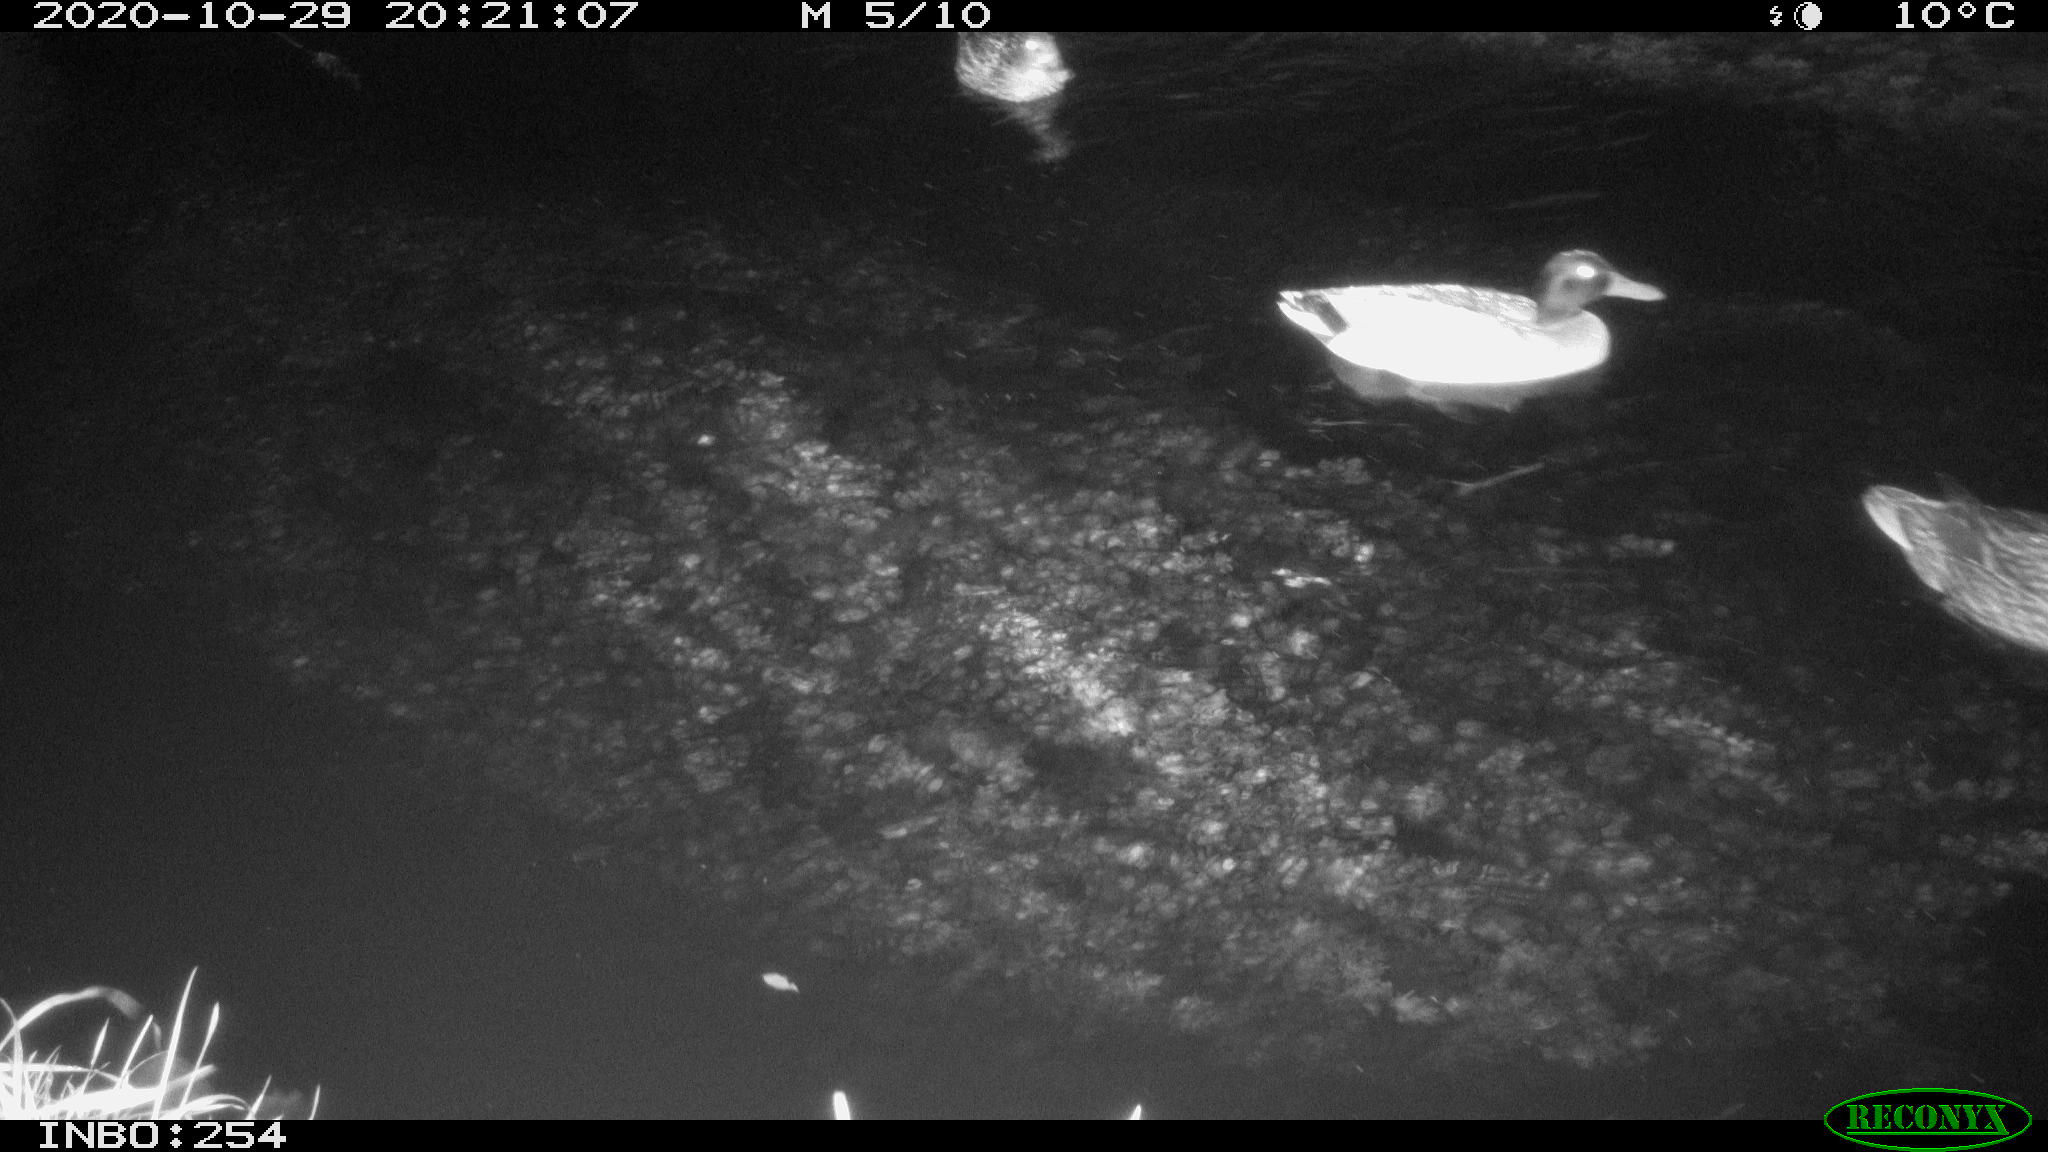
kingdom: Animalia
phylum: Chordata
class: Aves
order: Anseriformes
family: Anatidae
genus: Anas
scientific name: Anas platyrhynchos
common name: Mallard
